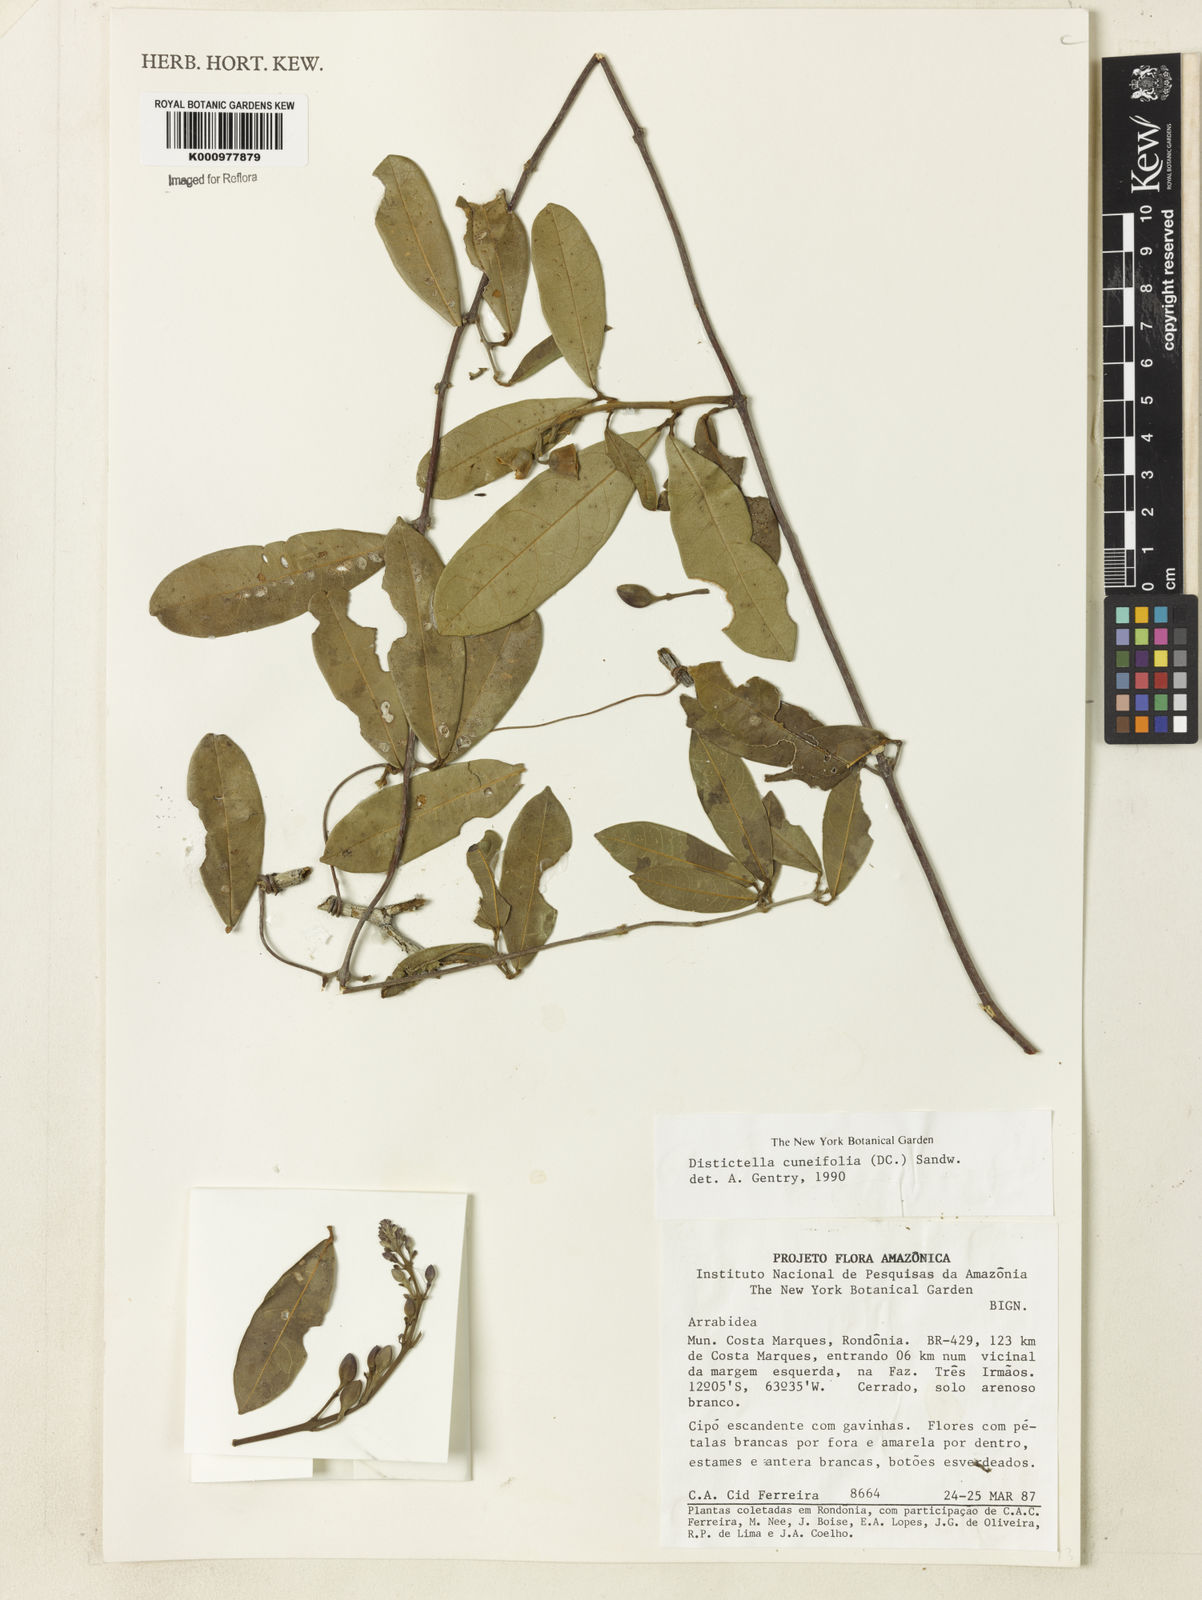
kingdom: Plantae
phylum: Tracheophyta
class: Magnoliopsida
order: Lamiales
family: Bignoniaceae
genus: Amphilophium
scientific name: Amphilophium cuneifolium
